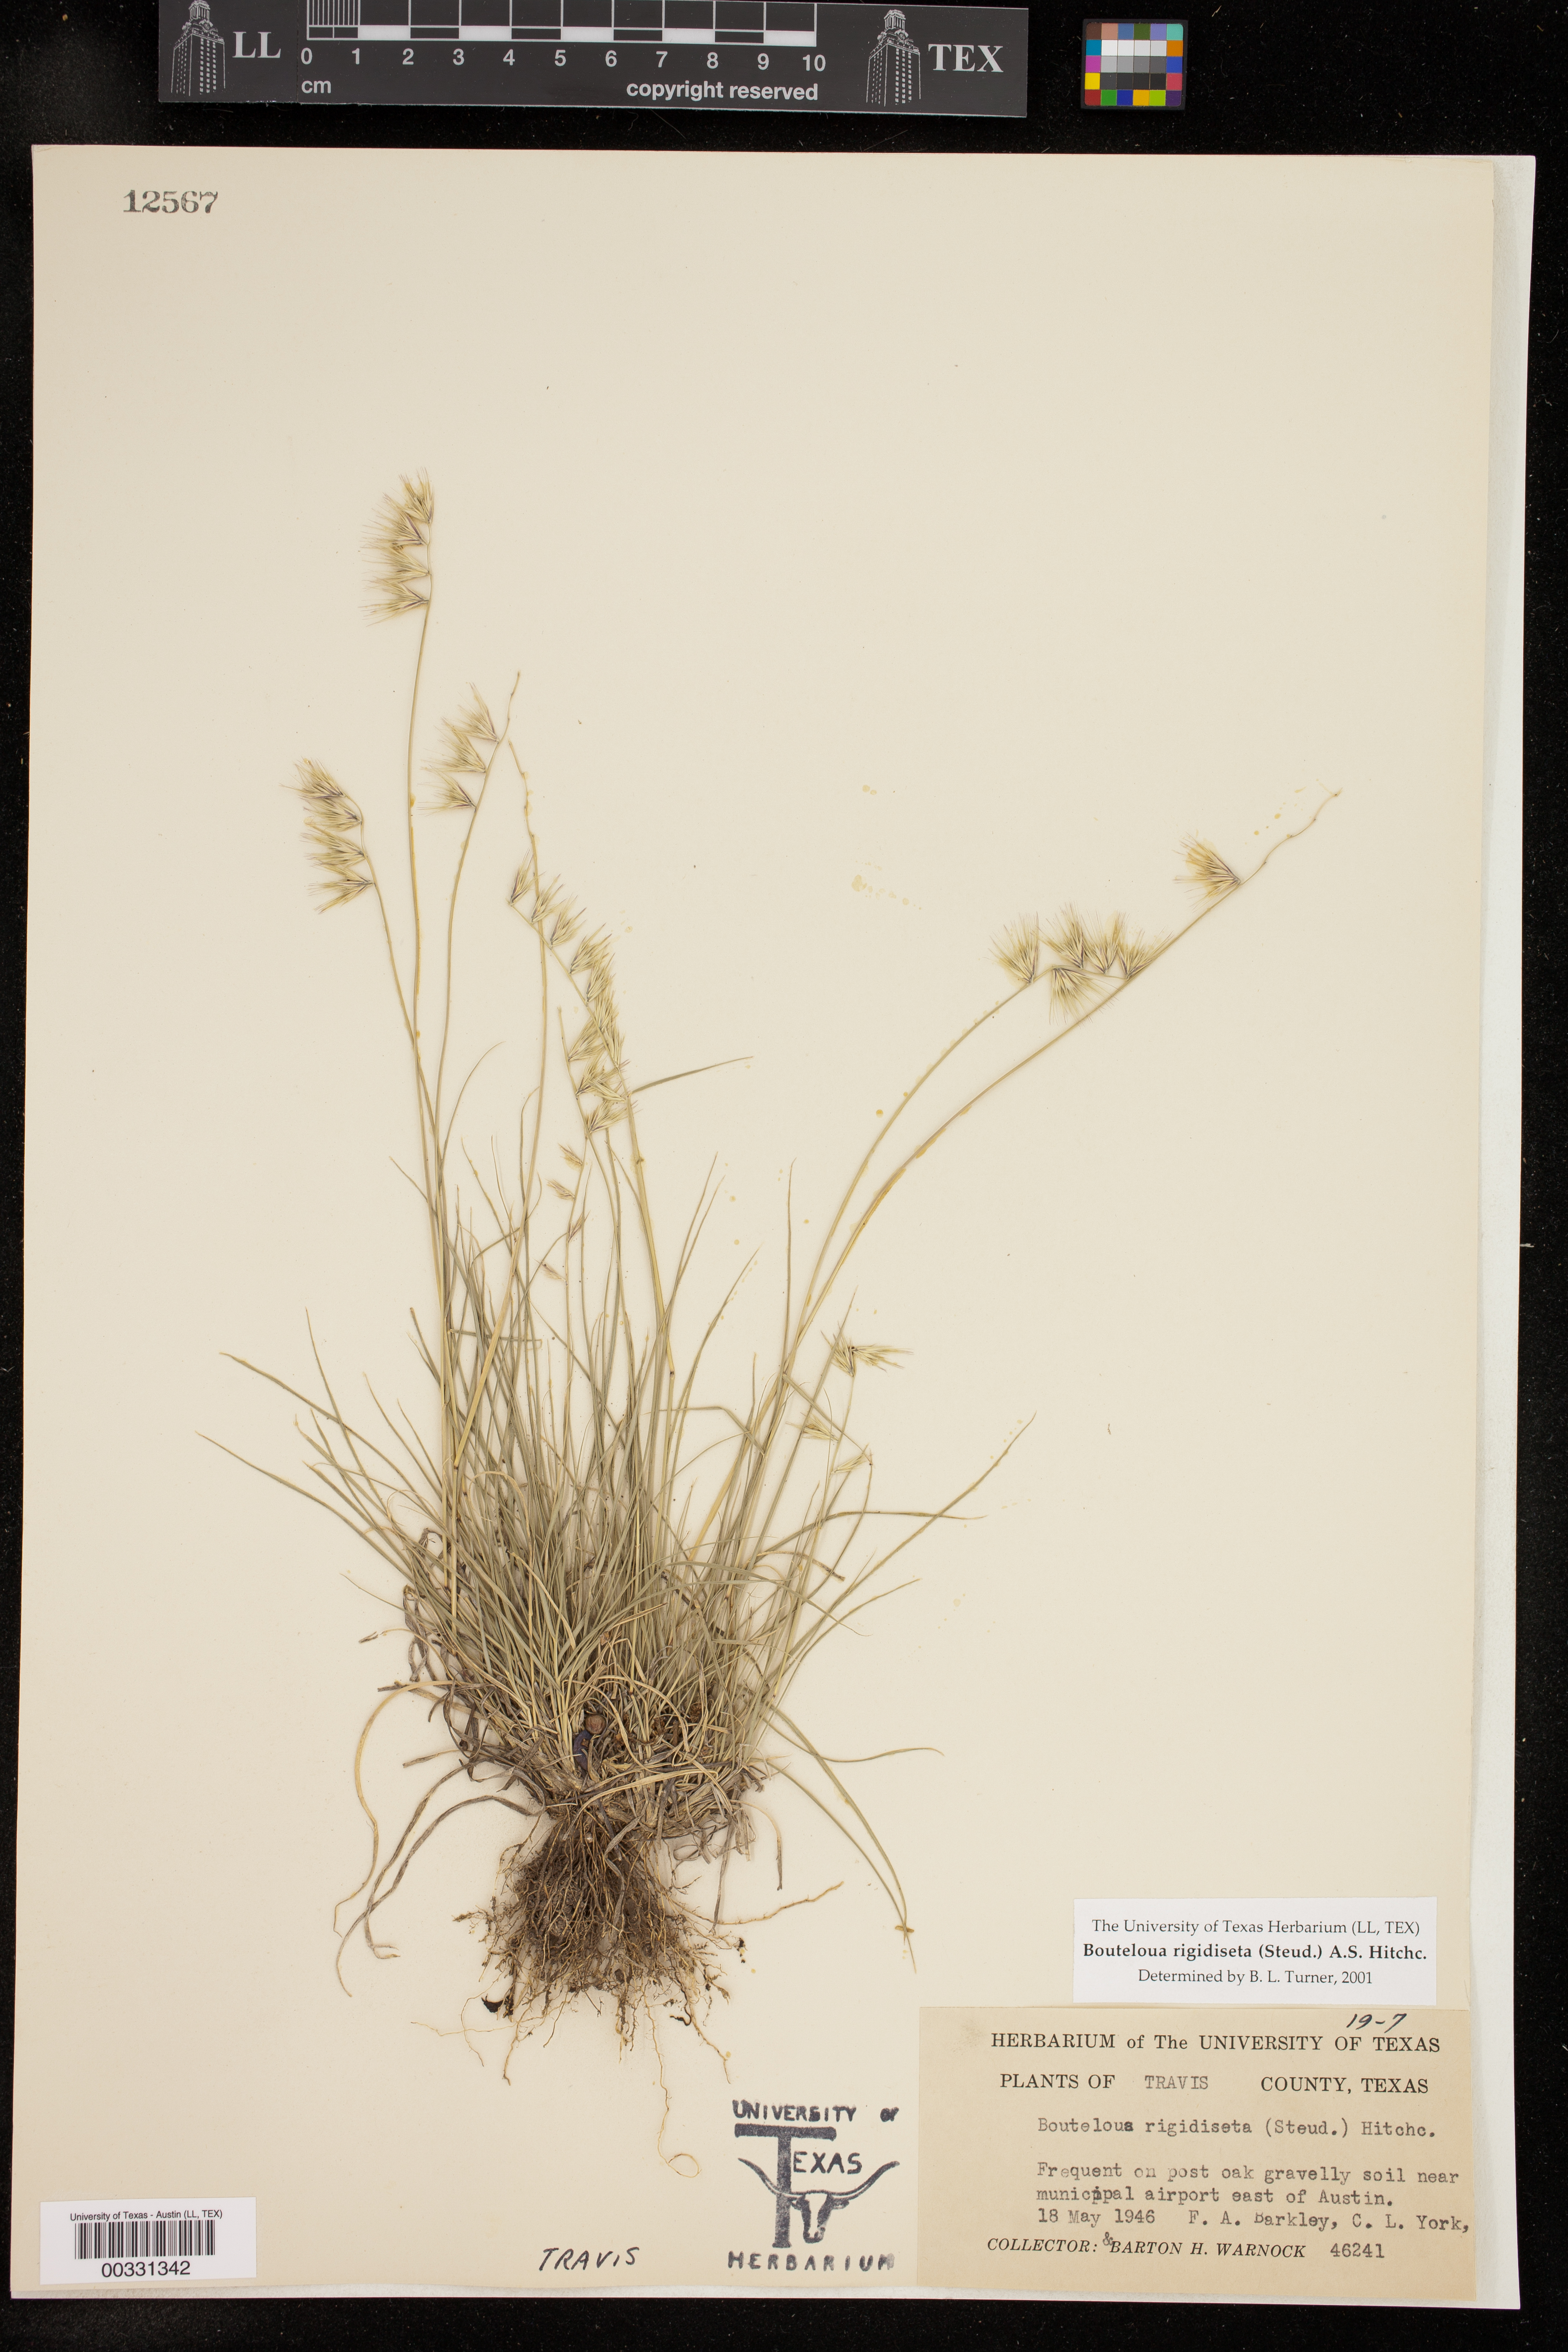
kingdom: Plantae
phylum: Tracheophyta
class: Liliopsida
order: Poales
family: Poaceae
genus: Bouteloua
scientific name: Bouteloua rigidiseta
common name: Texas grama
